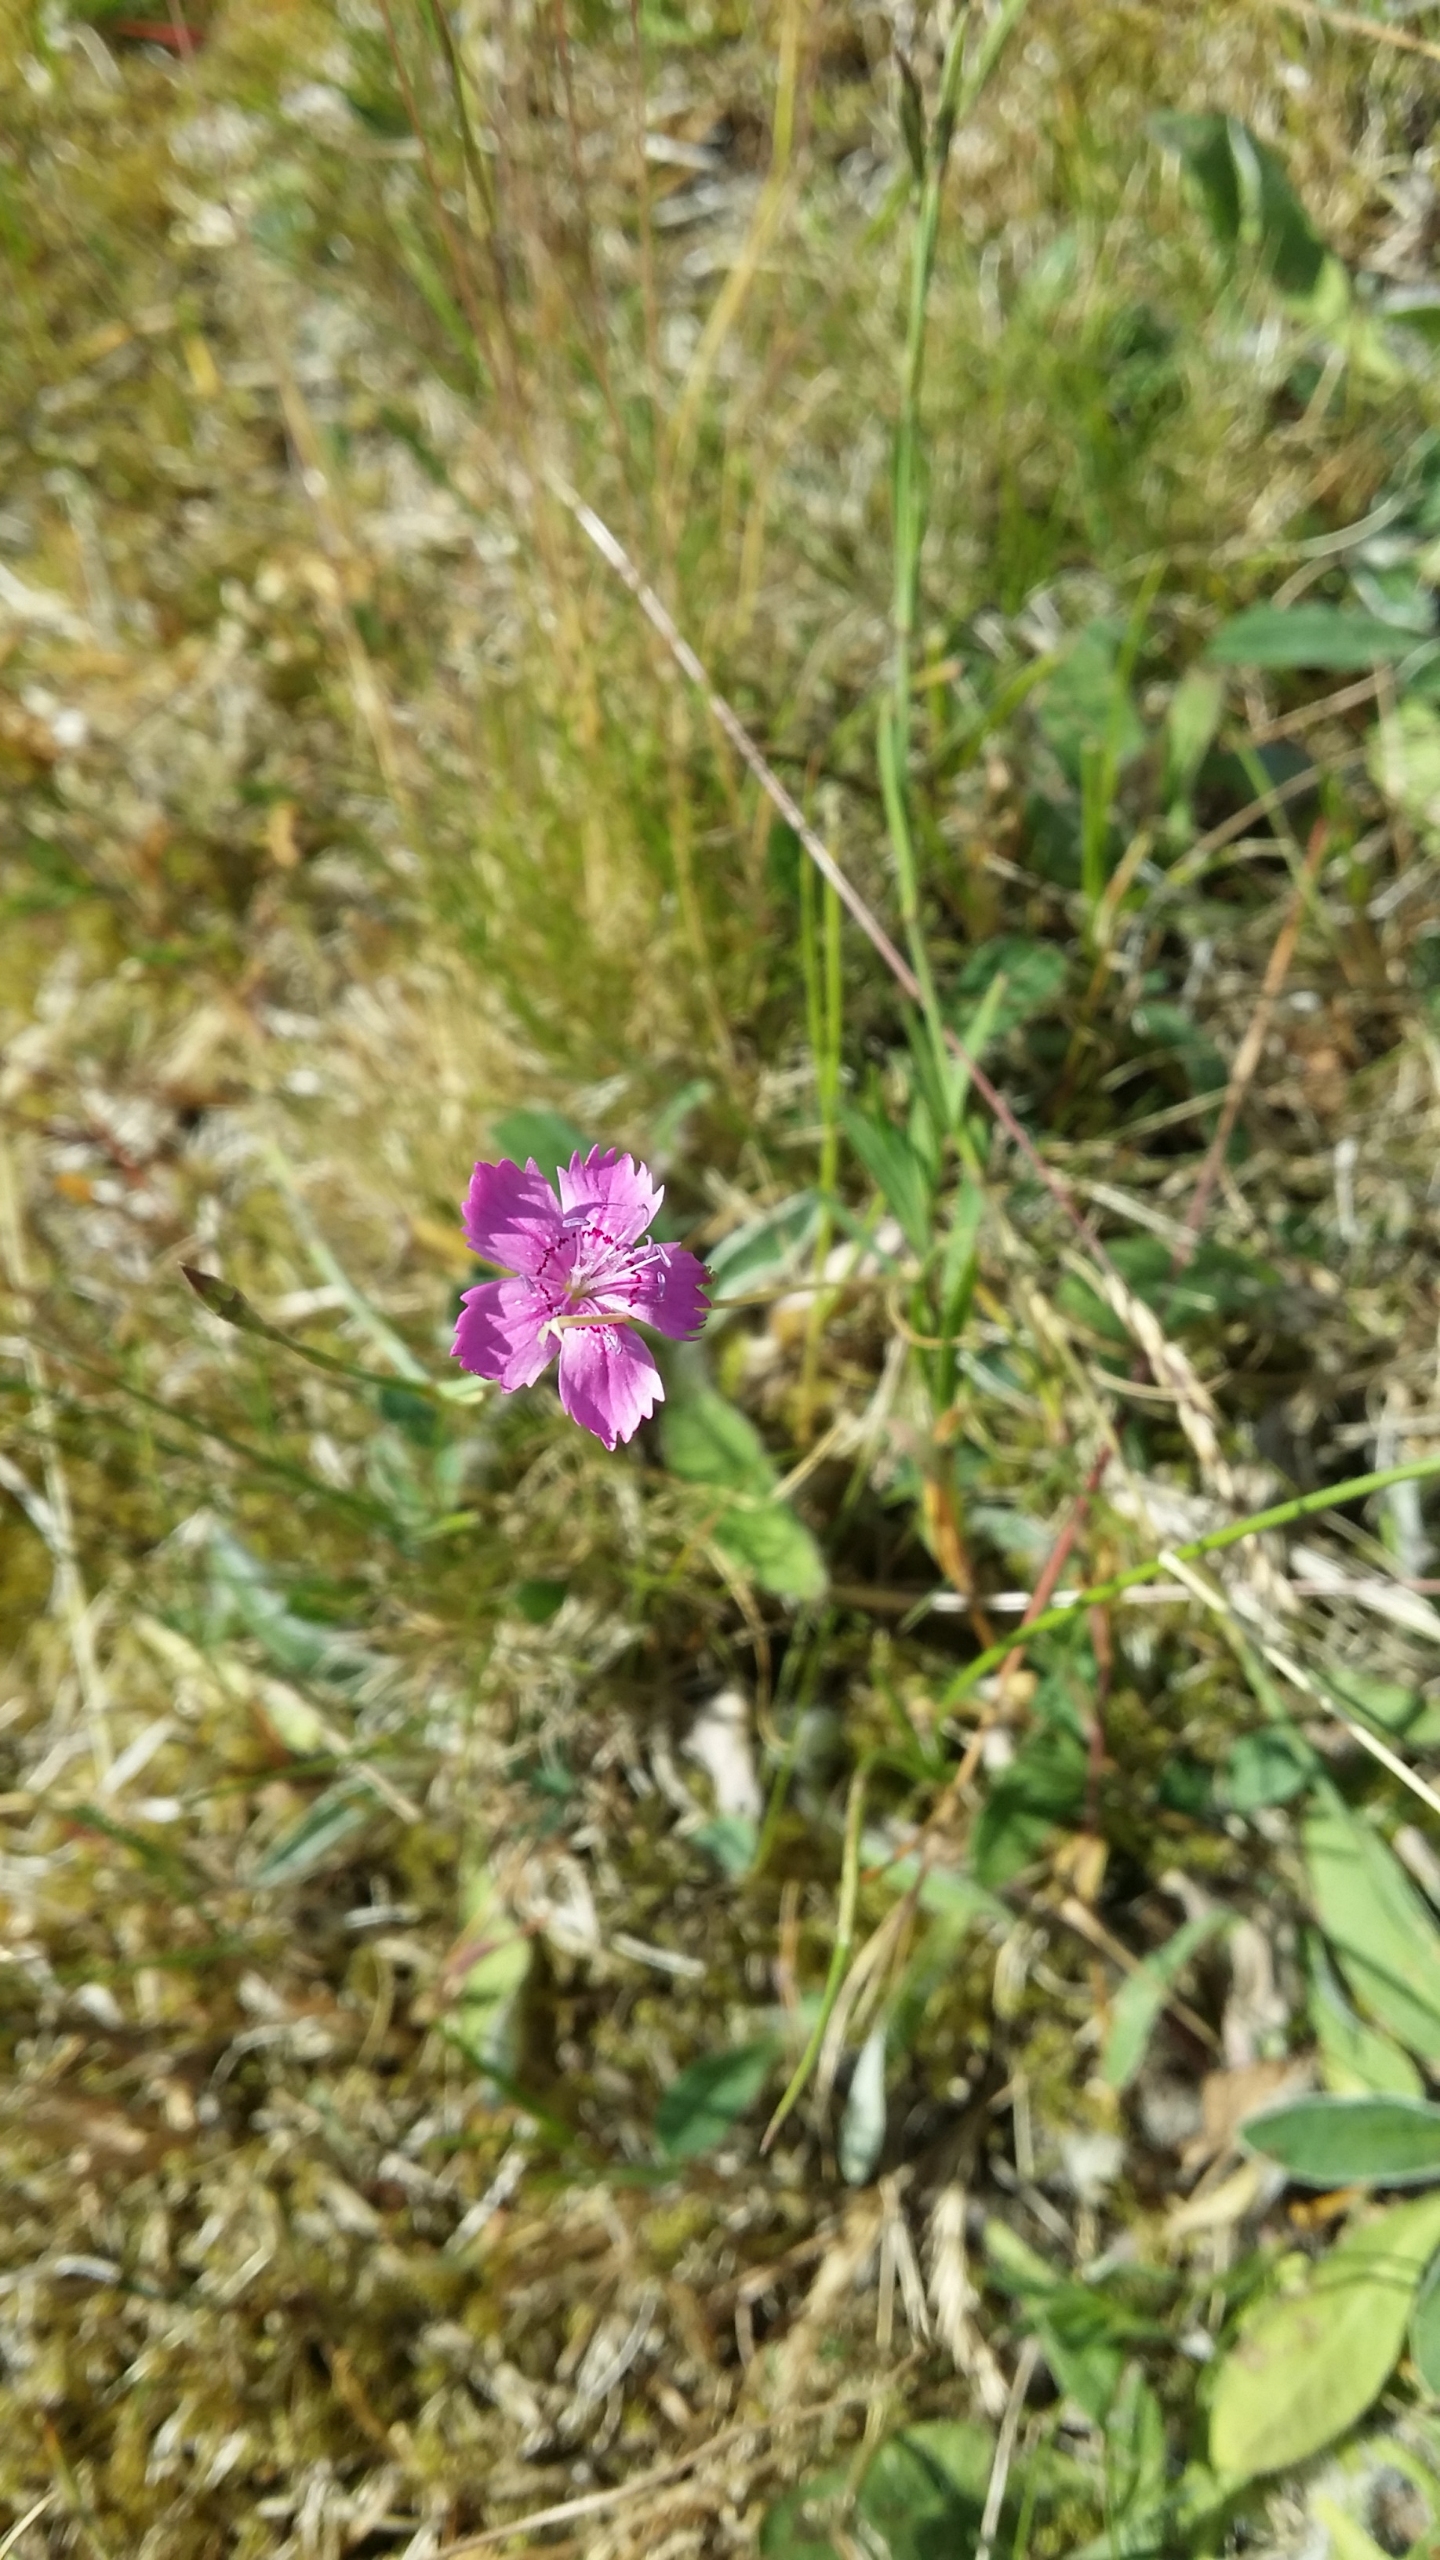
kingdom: Plantae
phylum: Tracheophyta
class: Magnoliopsida
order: Caryophyllales
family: Caryophyllaceae
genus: Dianthus
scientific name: Dianthus deltoides
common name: Bakke-nellike
